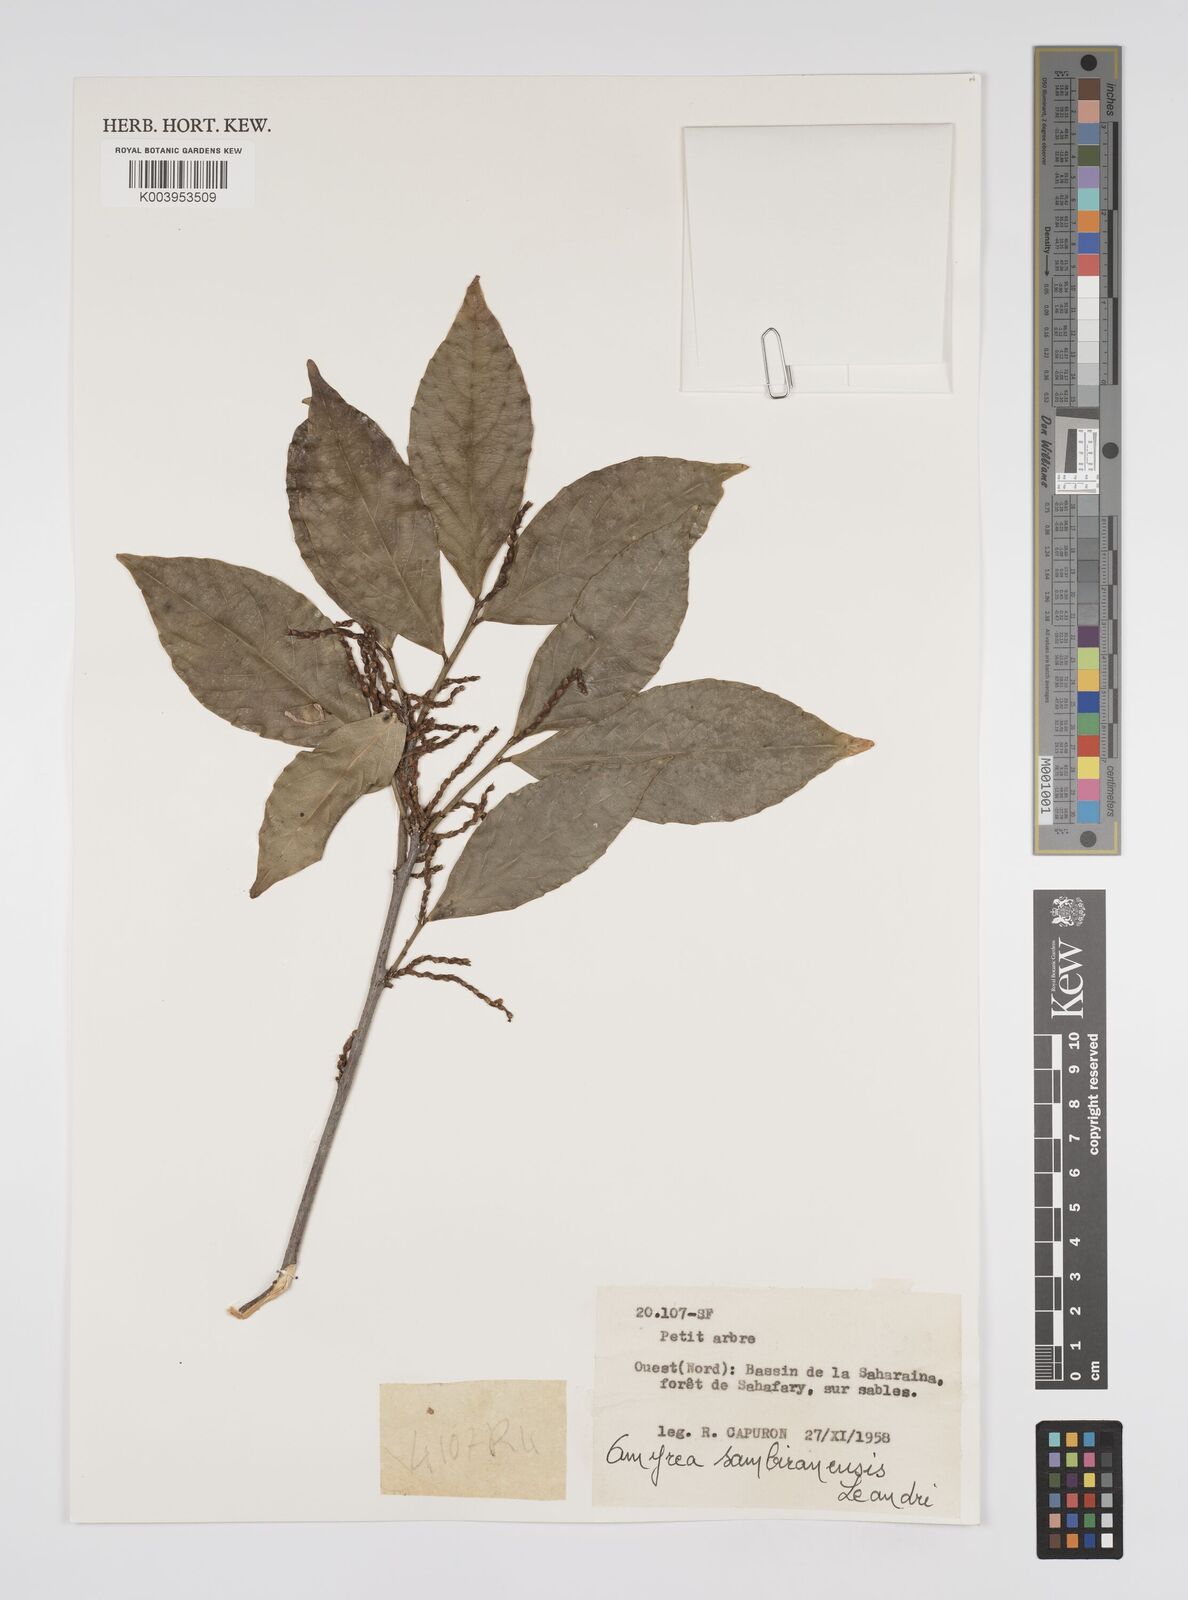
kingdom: Plantae
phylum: Tracheophyta
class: Magnoliopsida
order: Malpighiales
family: Euphorbiaceae
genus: Amyrea
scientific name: Amyrea sambiranensis
